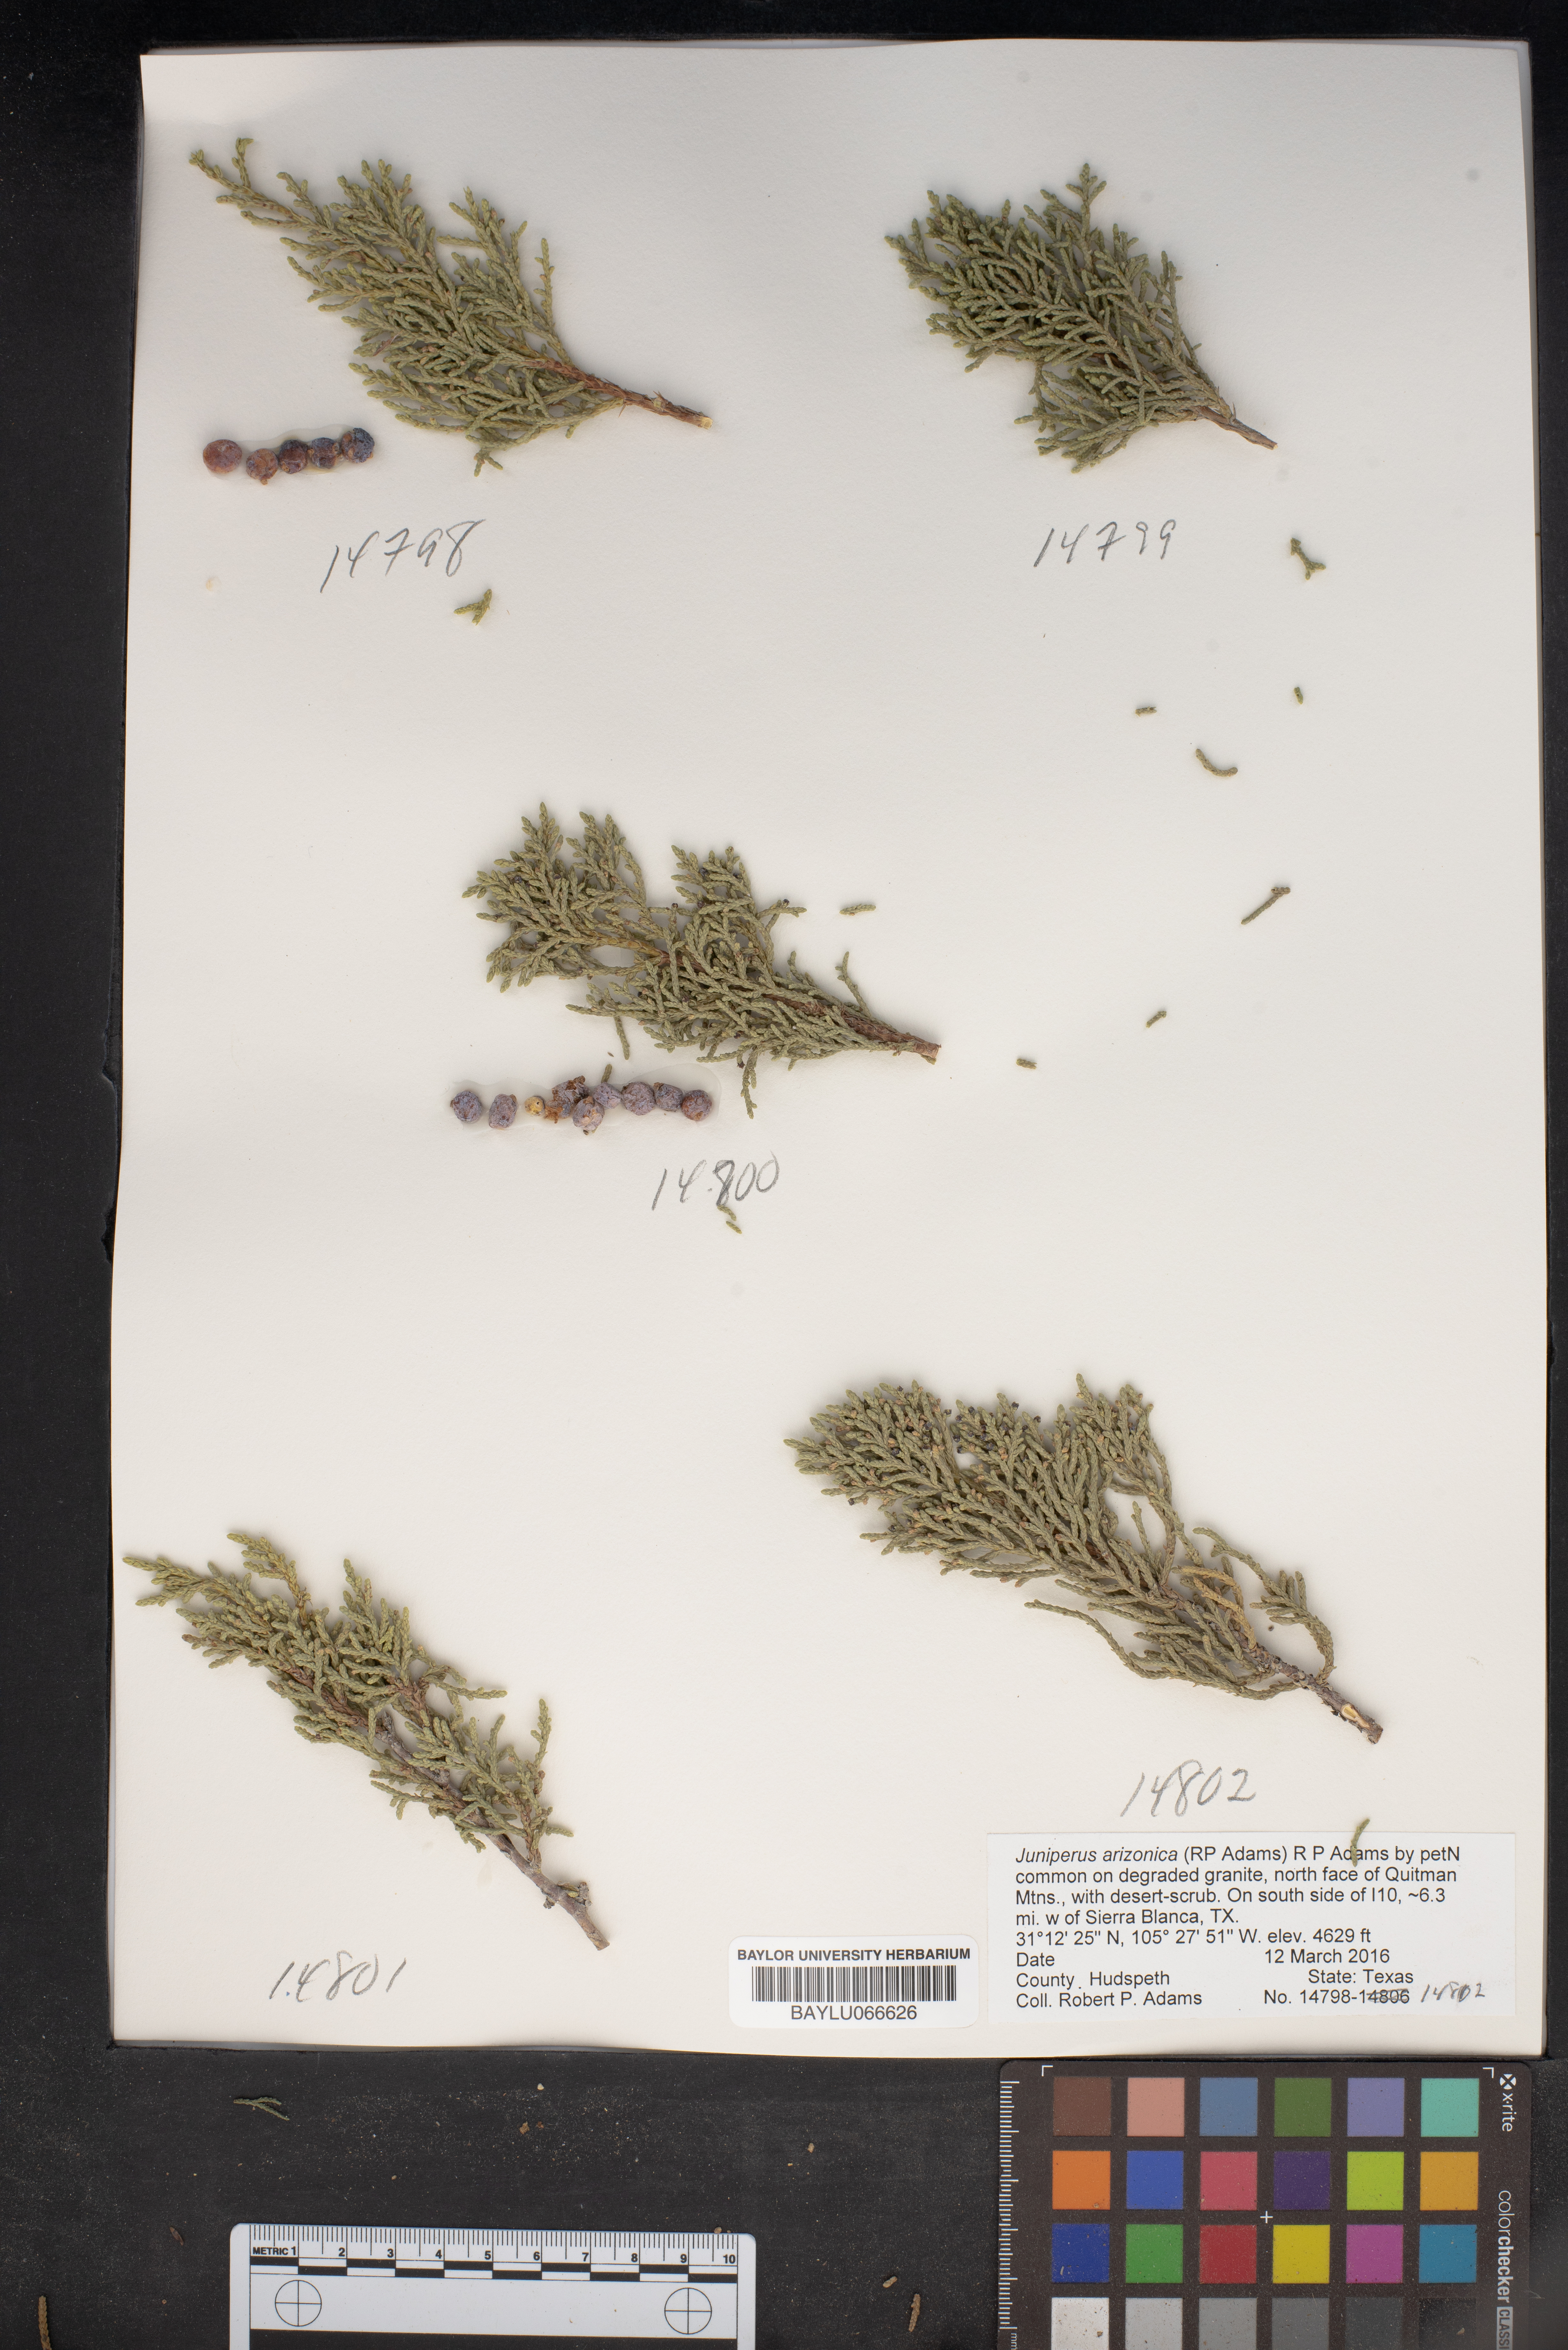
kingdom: Plantae
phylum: Tracheophyta
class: Pinopsida
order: Pinales
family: Cupressaceae
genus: Juniperus
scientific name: Juniperus arizonica
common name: Arizona juniper
